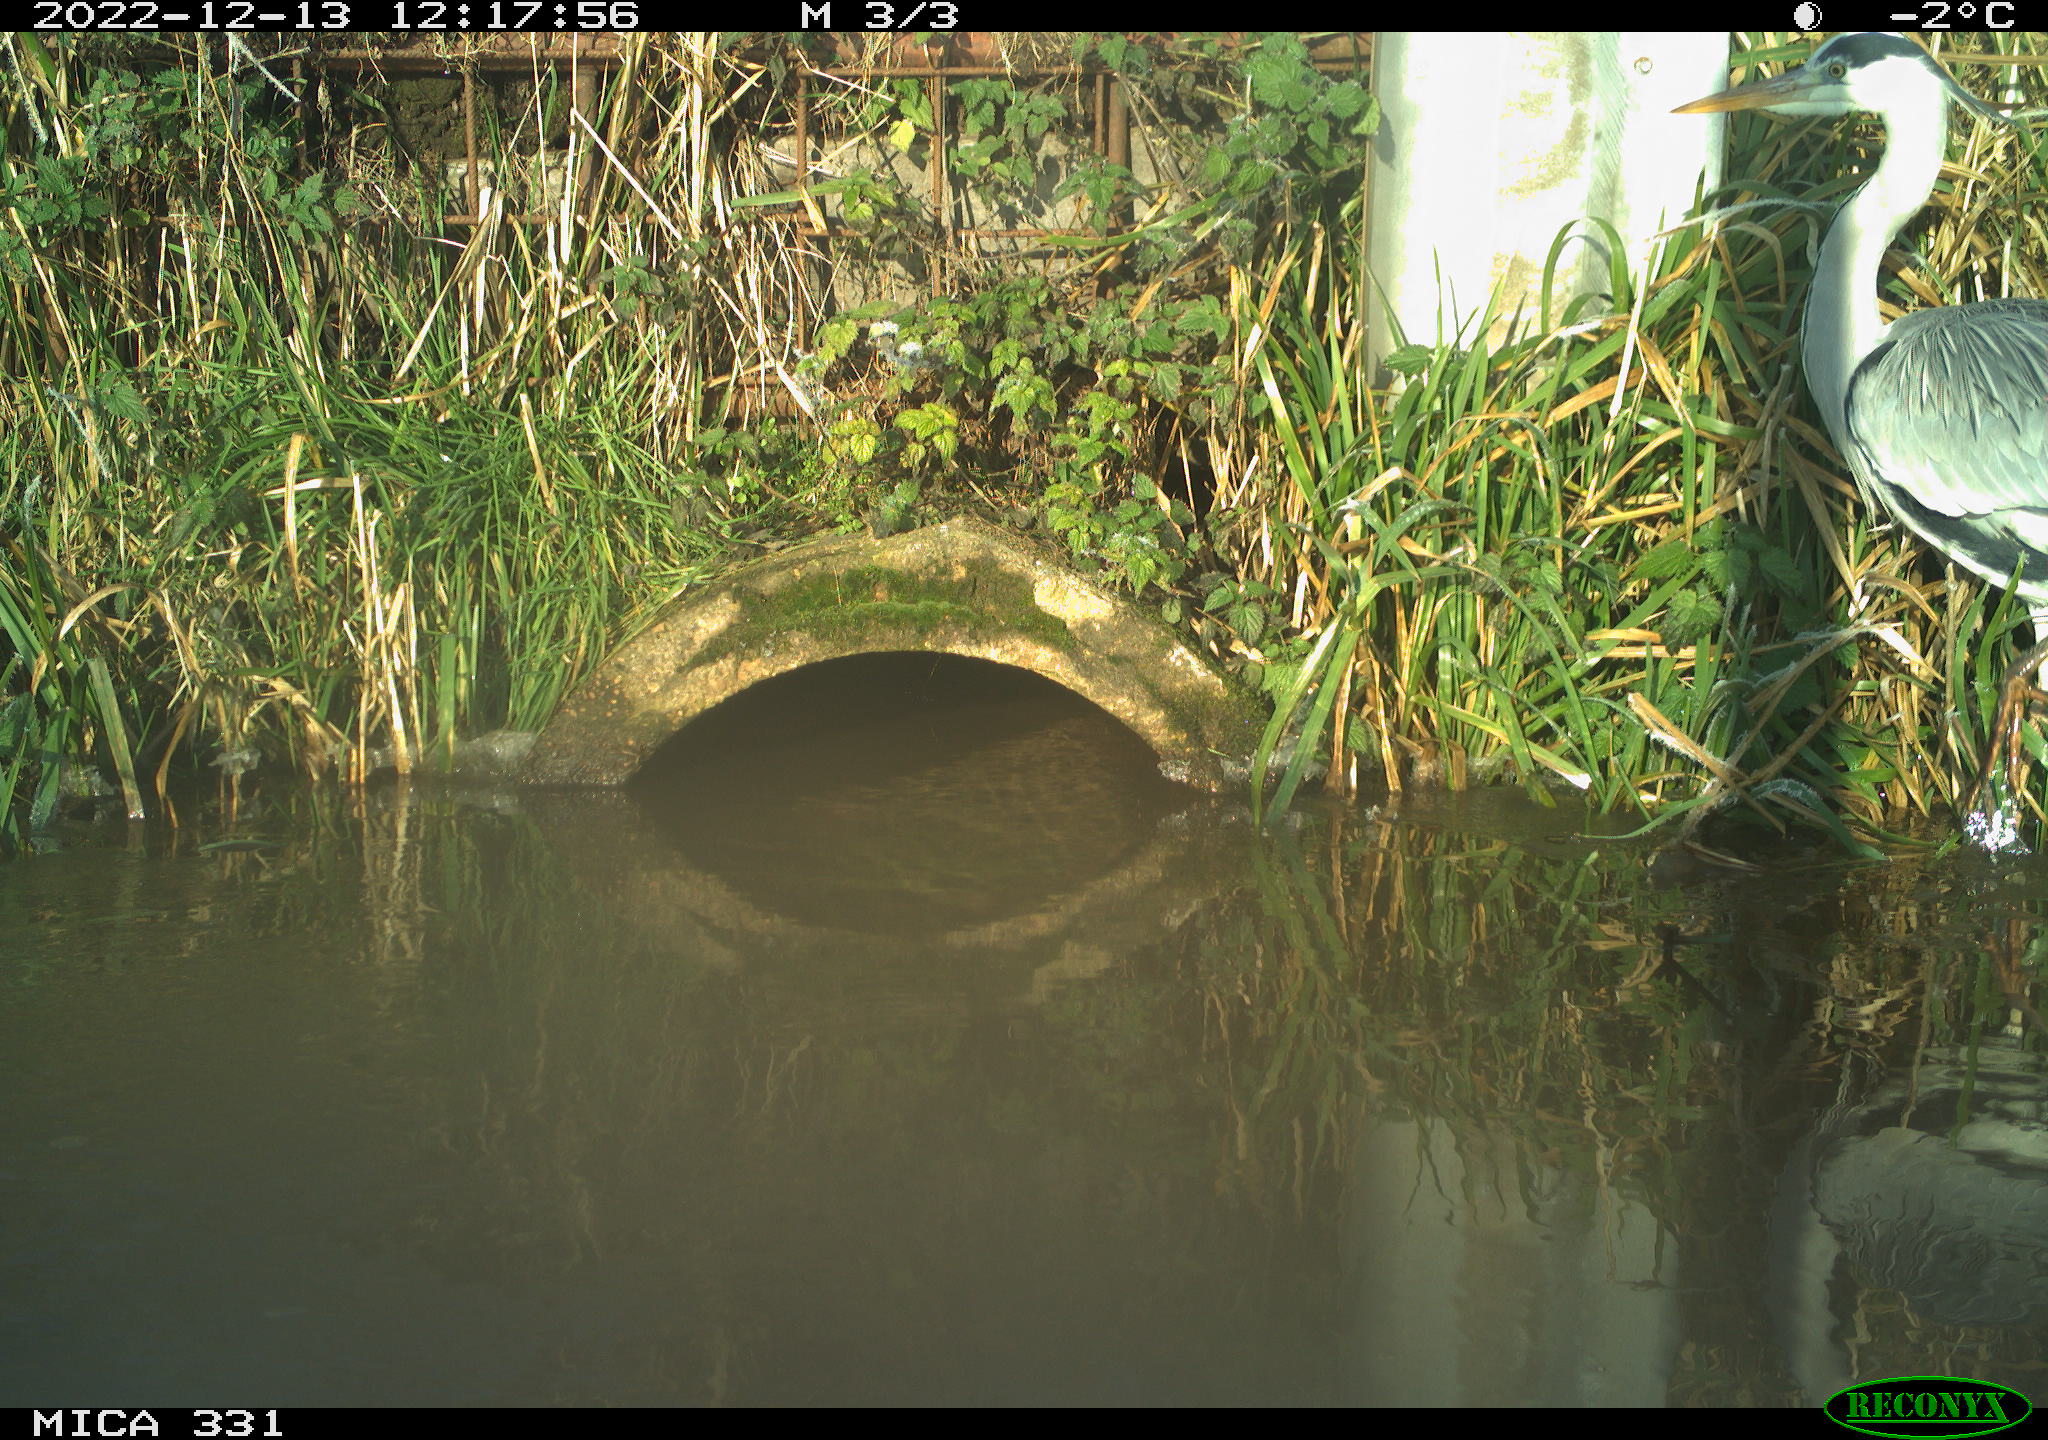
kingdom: Animalia
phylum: Chordata
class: Aves
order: Pelecaniformes
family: Ardeidae
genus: Ardea
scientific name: Ardea cinerea
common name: Grey heron
